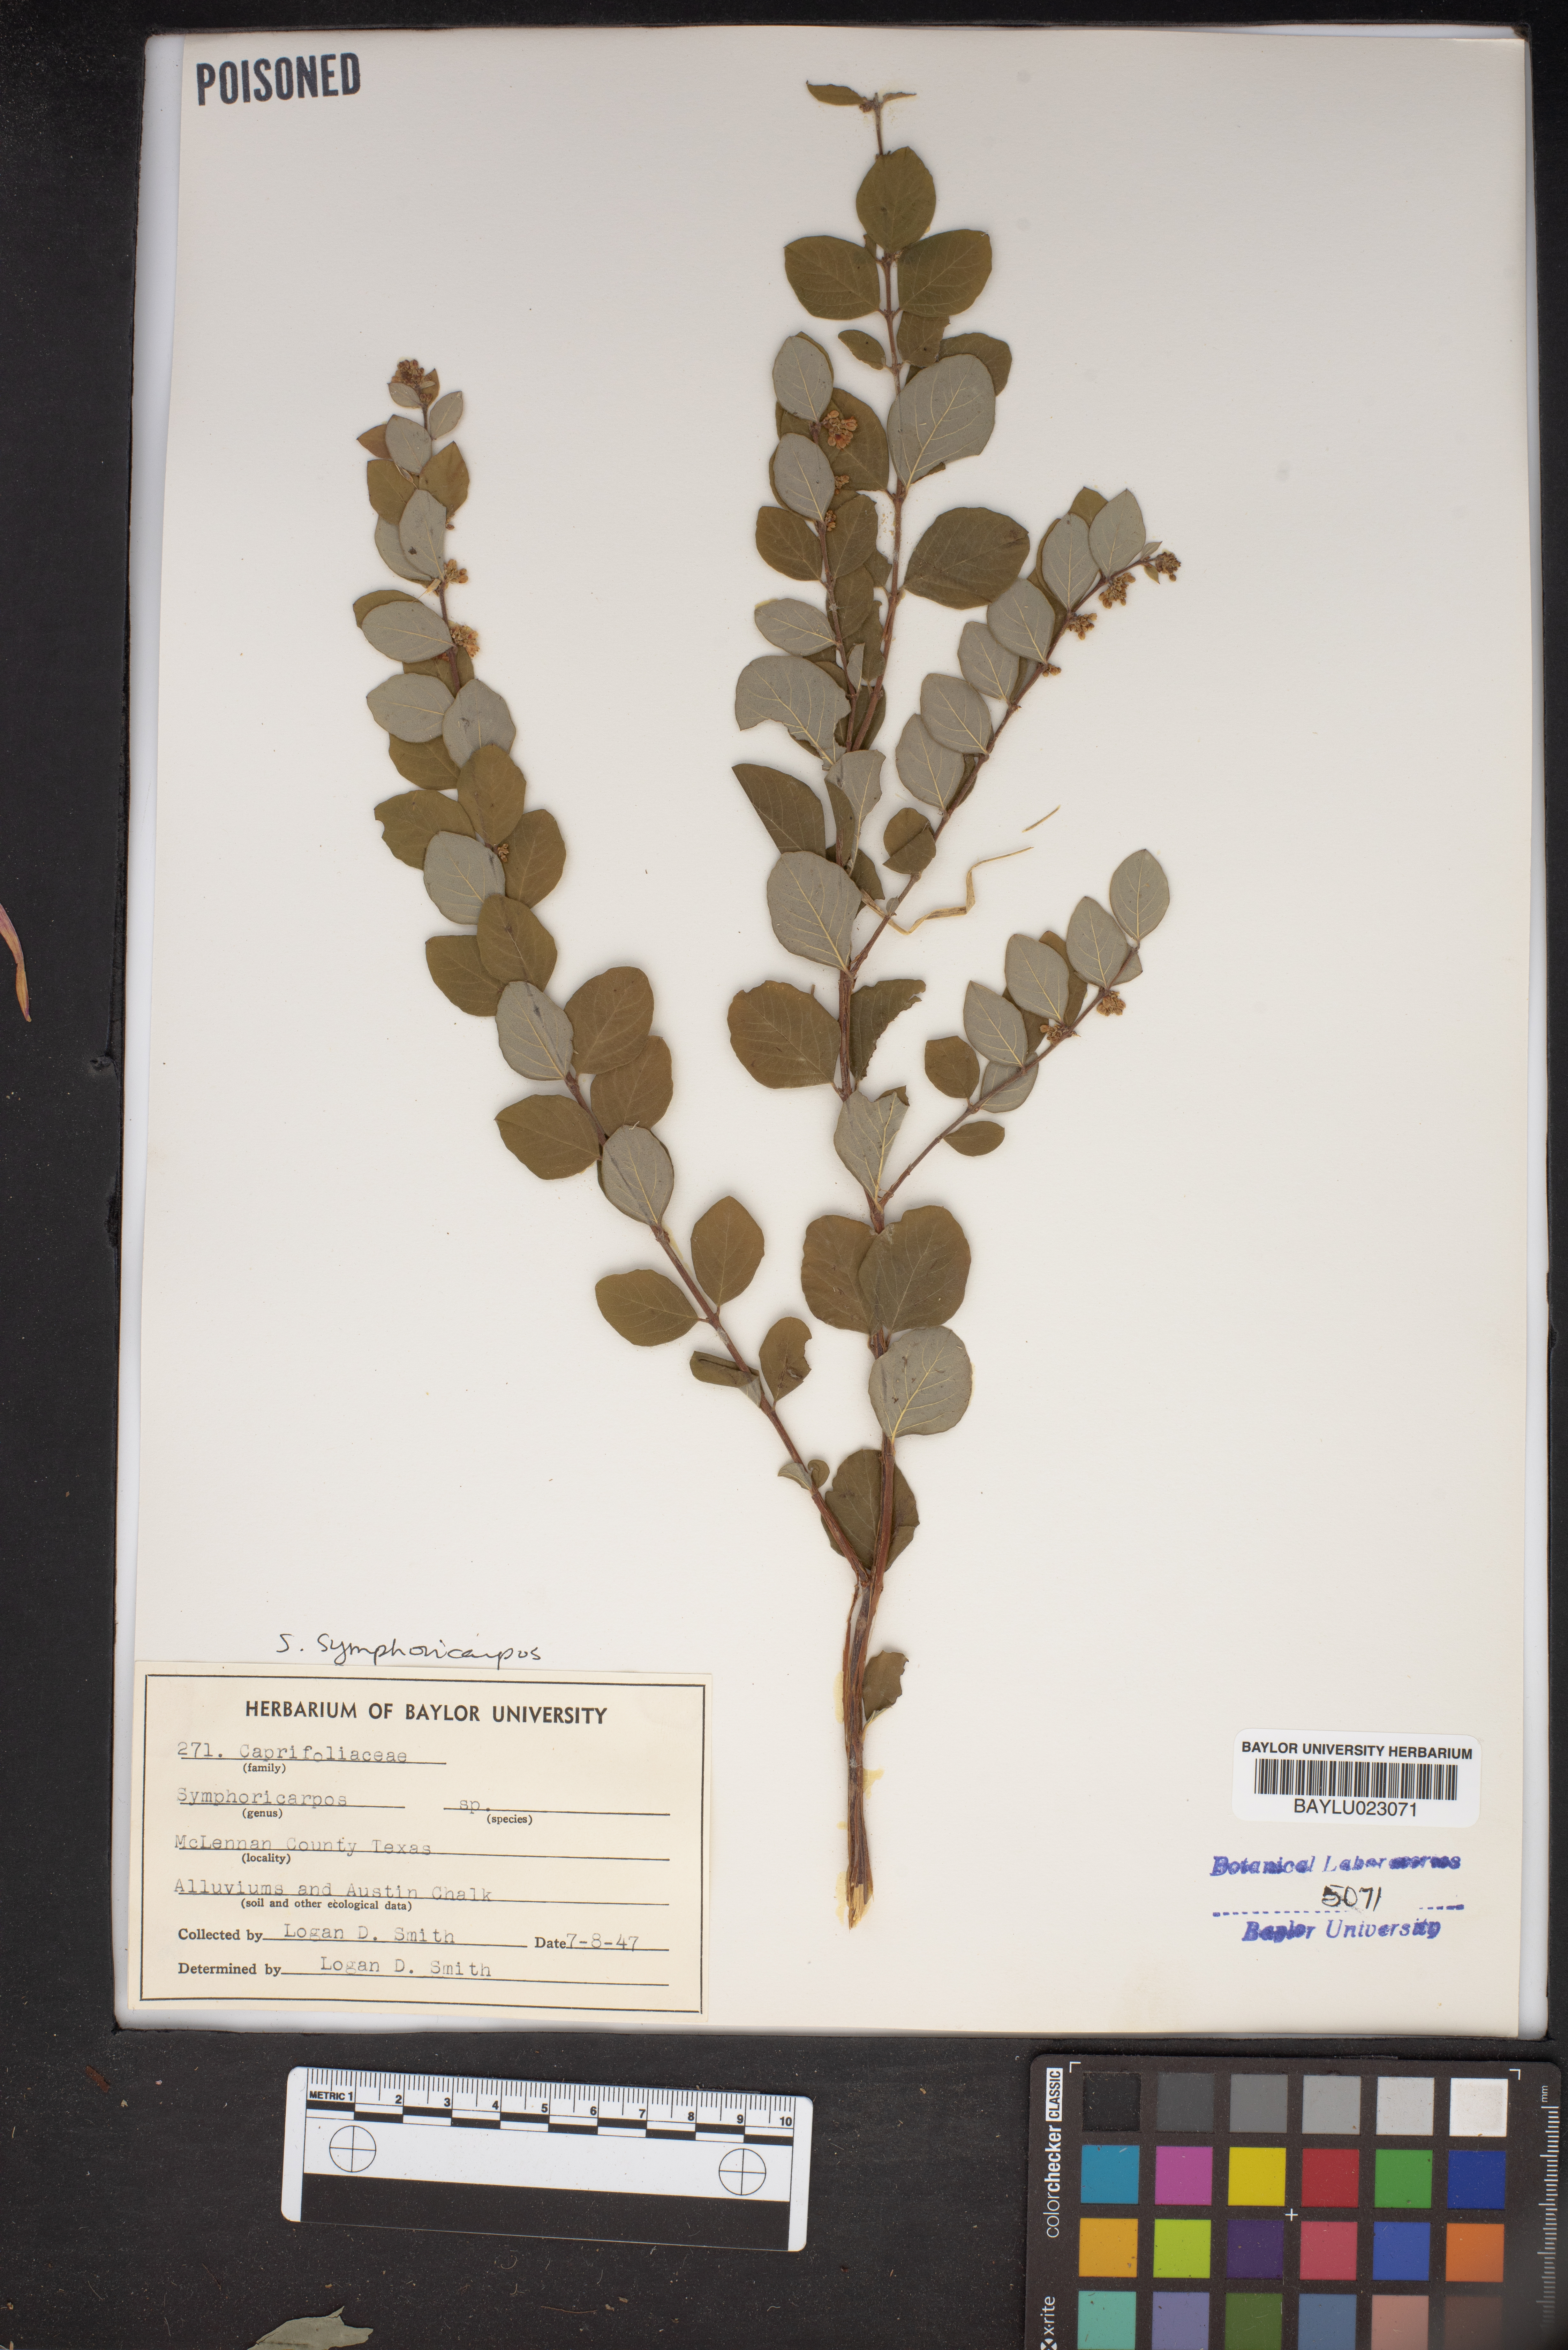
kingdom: Plantae
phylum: Tracheophyta
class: Magnoliopsida
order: Dipsacales
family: Caprifoliaceae
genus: Symphoricarpos
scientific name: Symphoricarpos
